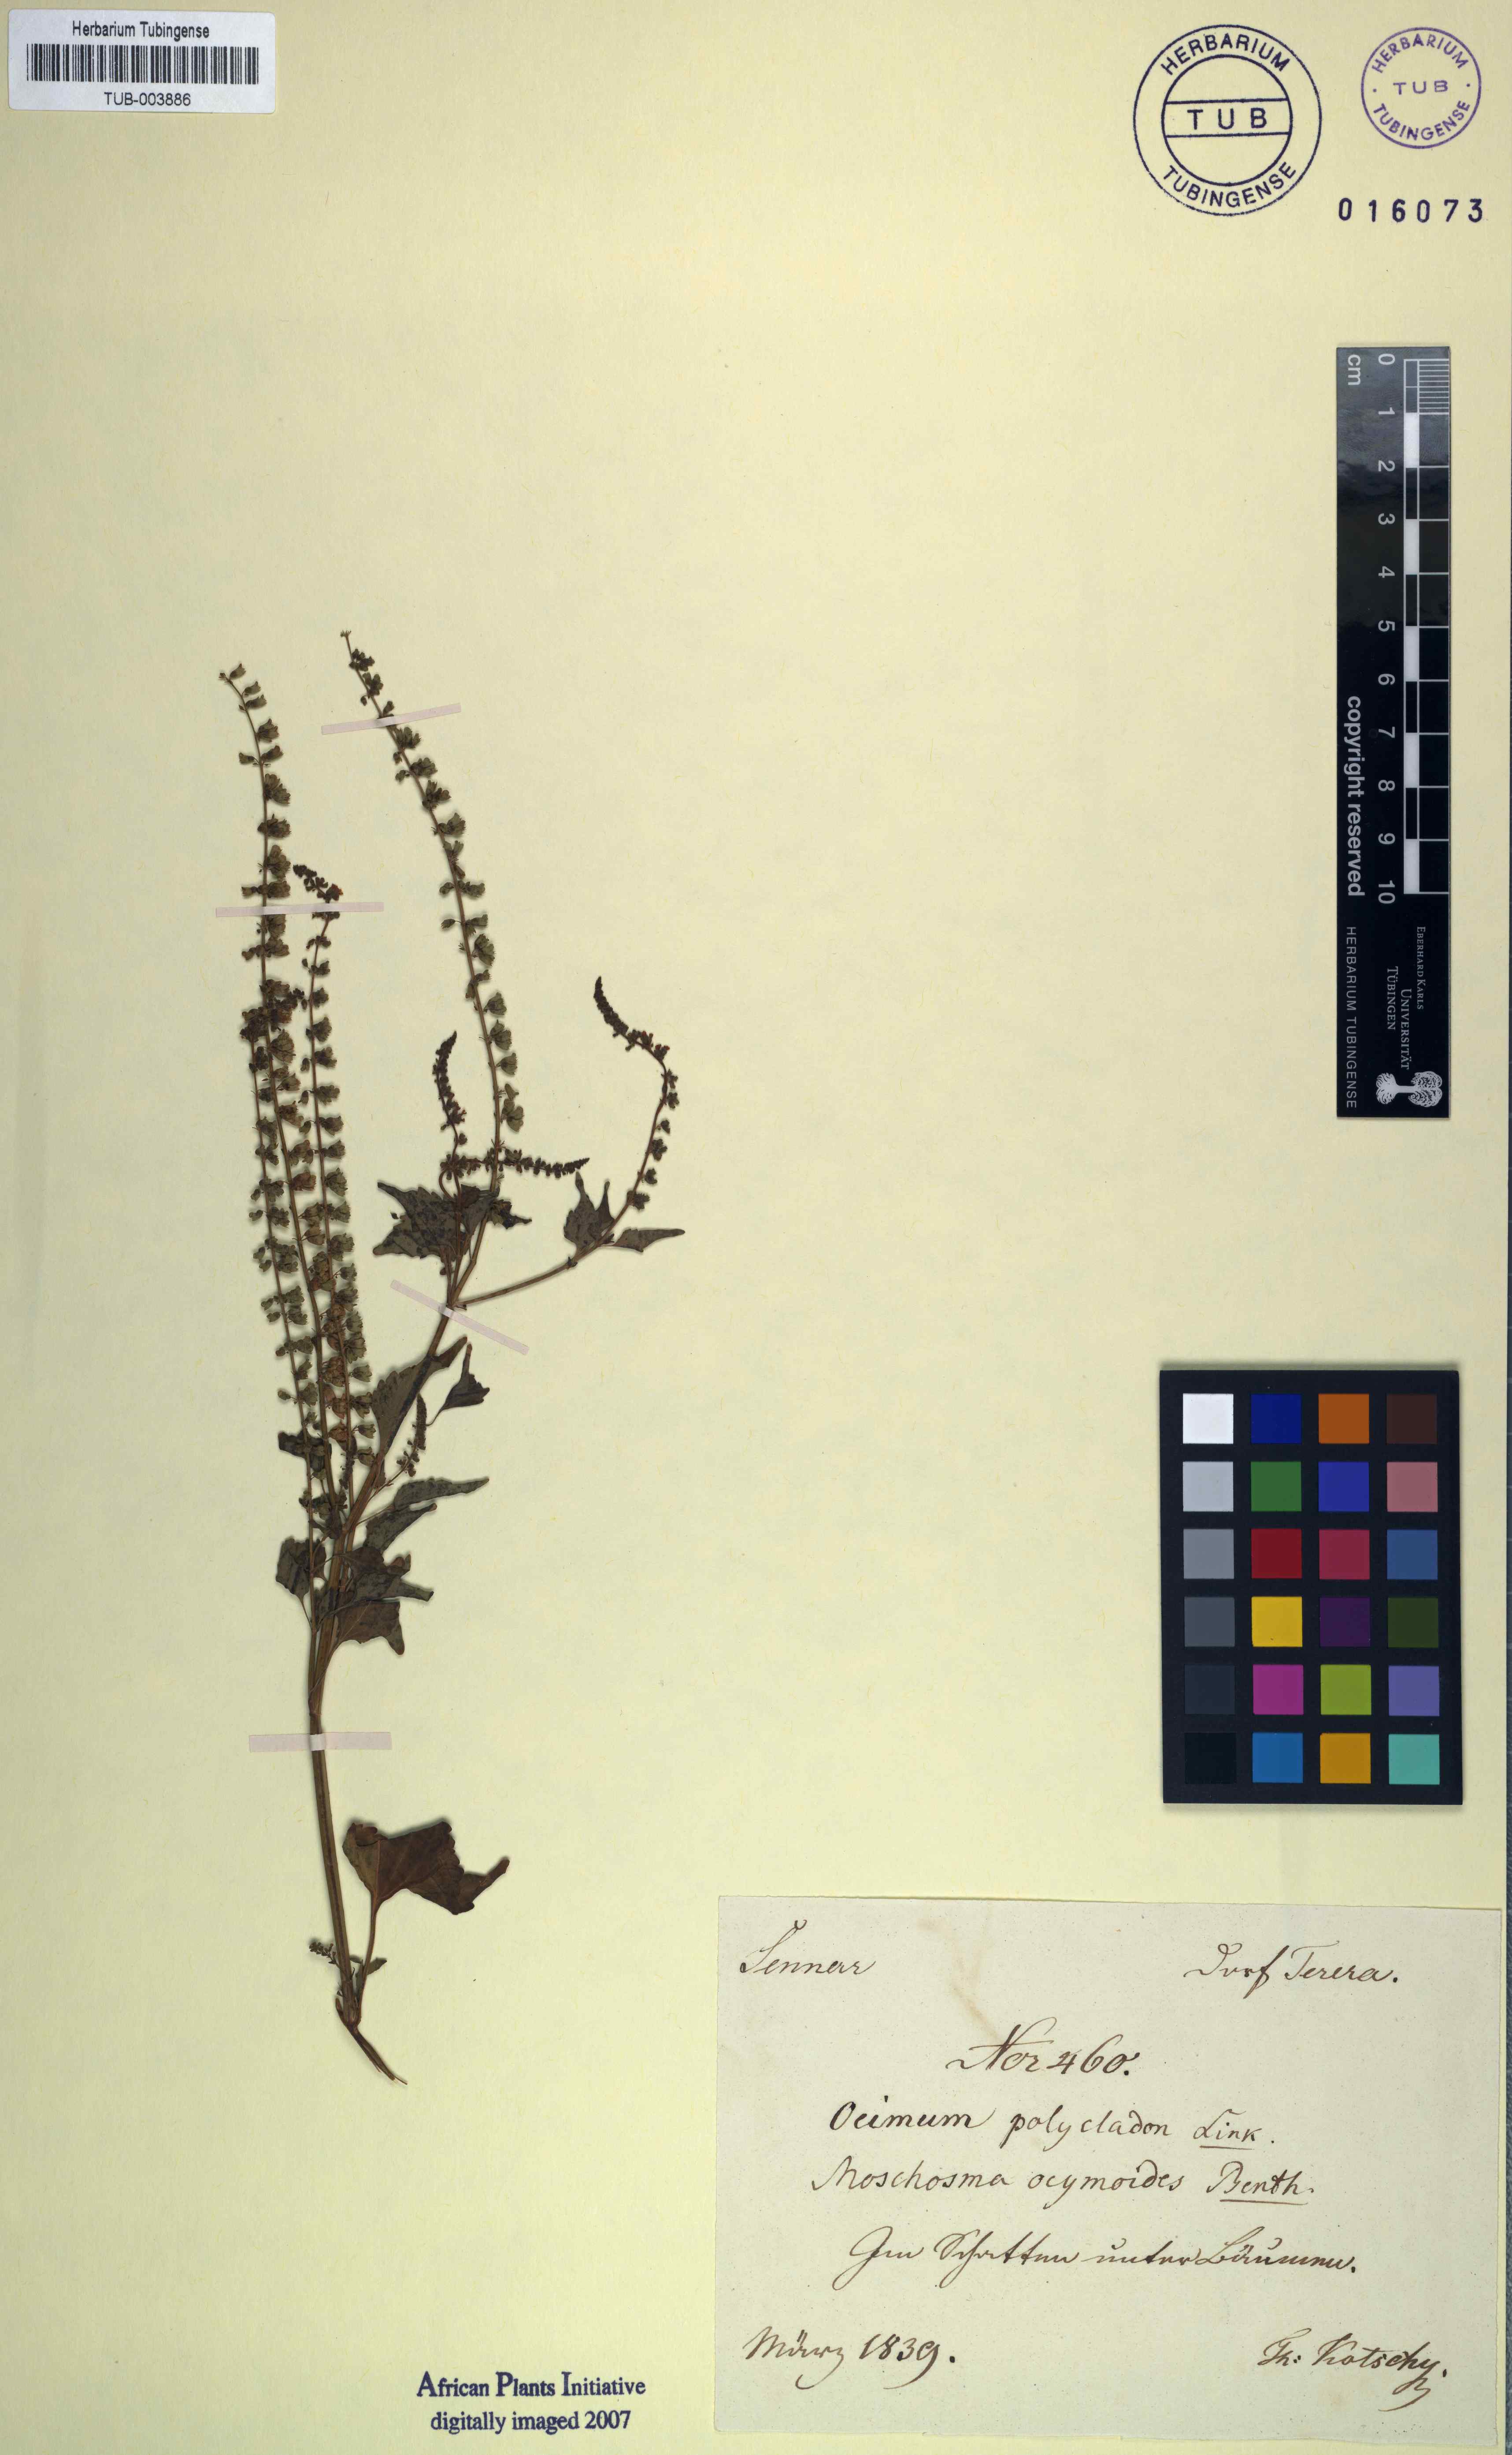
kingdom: Plantae
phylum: Tracheophyta
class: Magnoliopsida
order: Lamiales
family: Lamiaceae
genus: Mosla
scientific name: Mosla dianthera
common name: Miniature beefsteakplant
